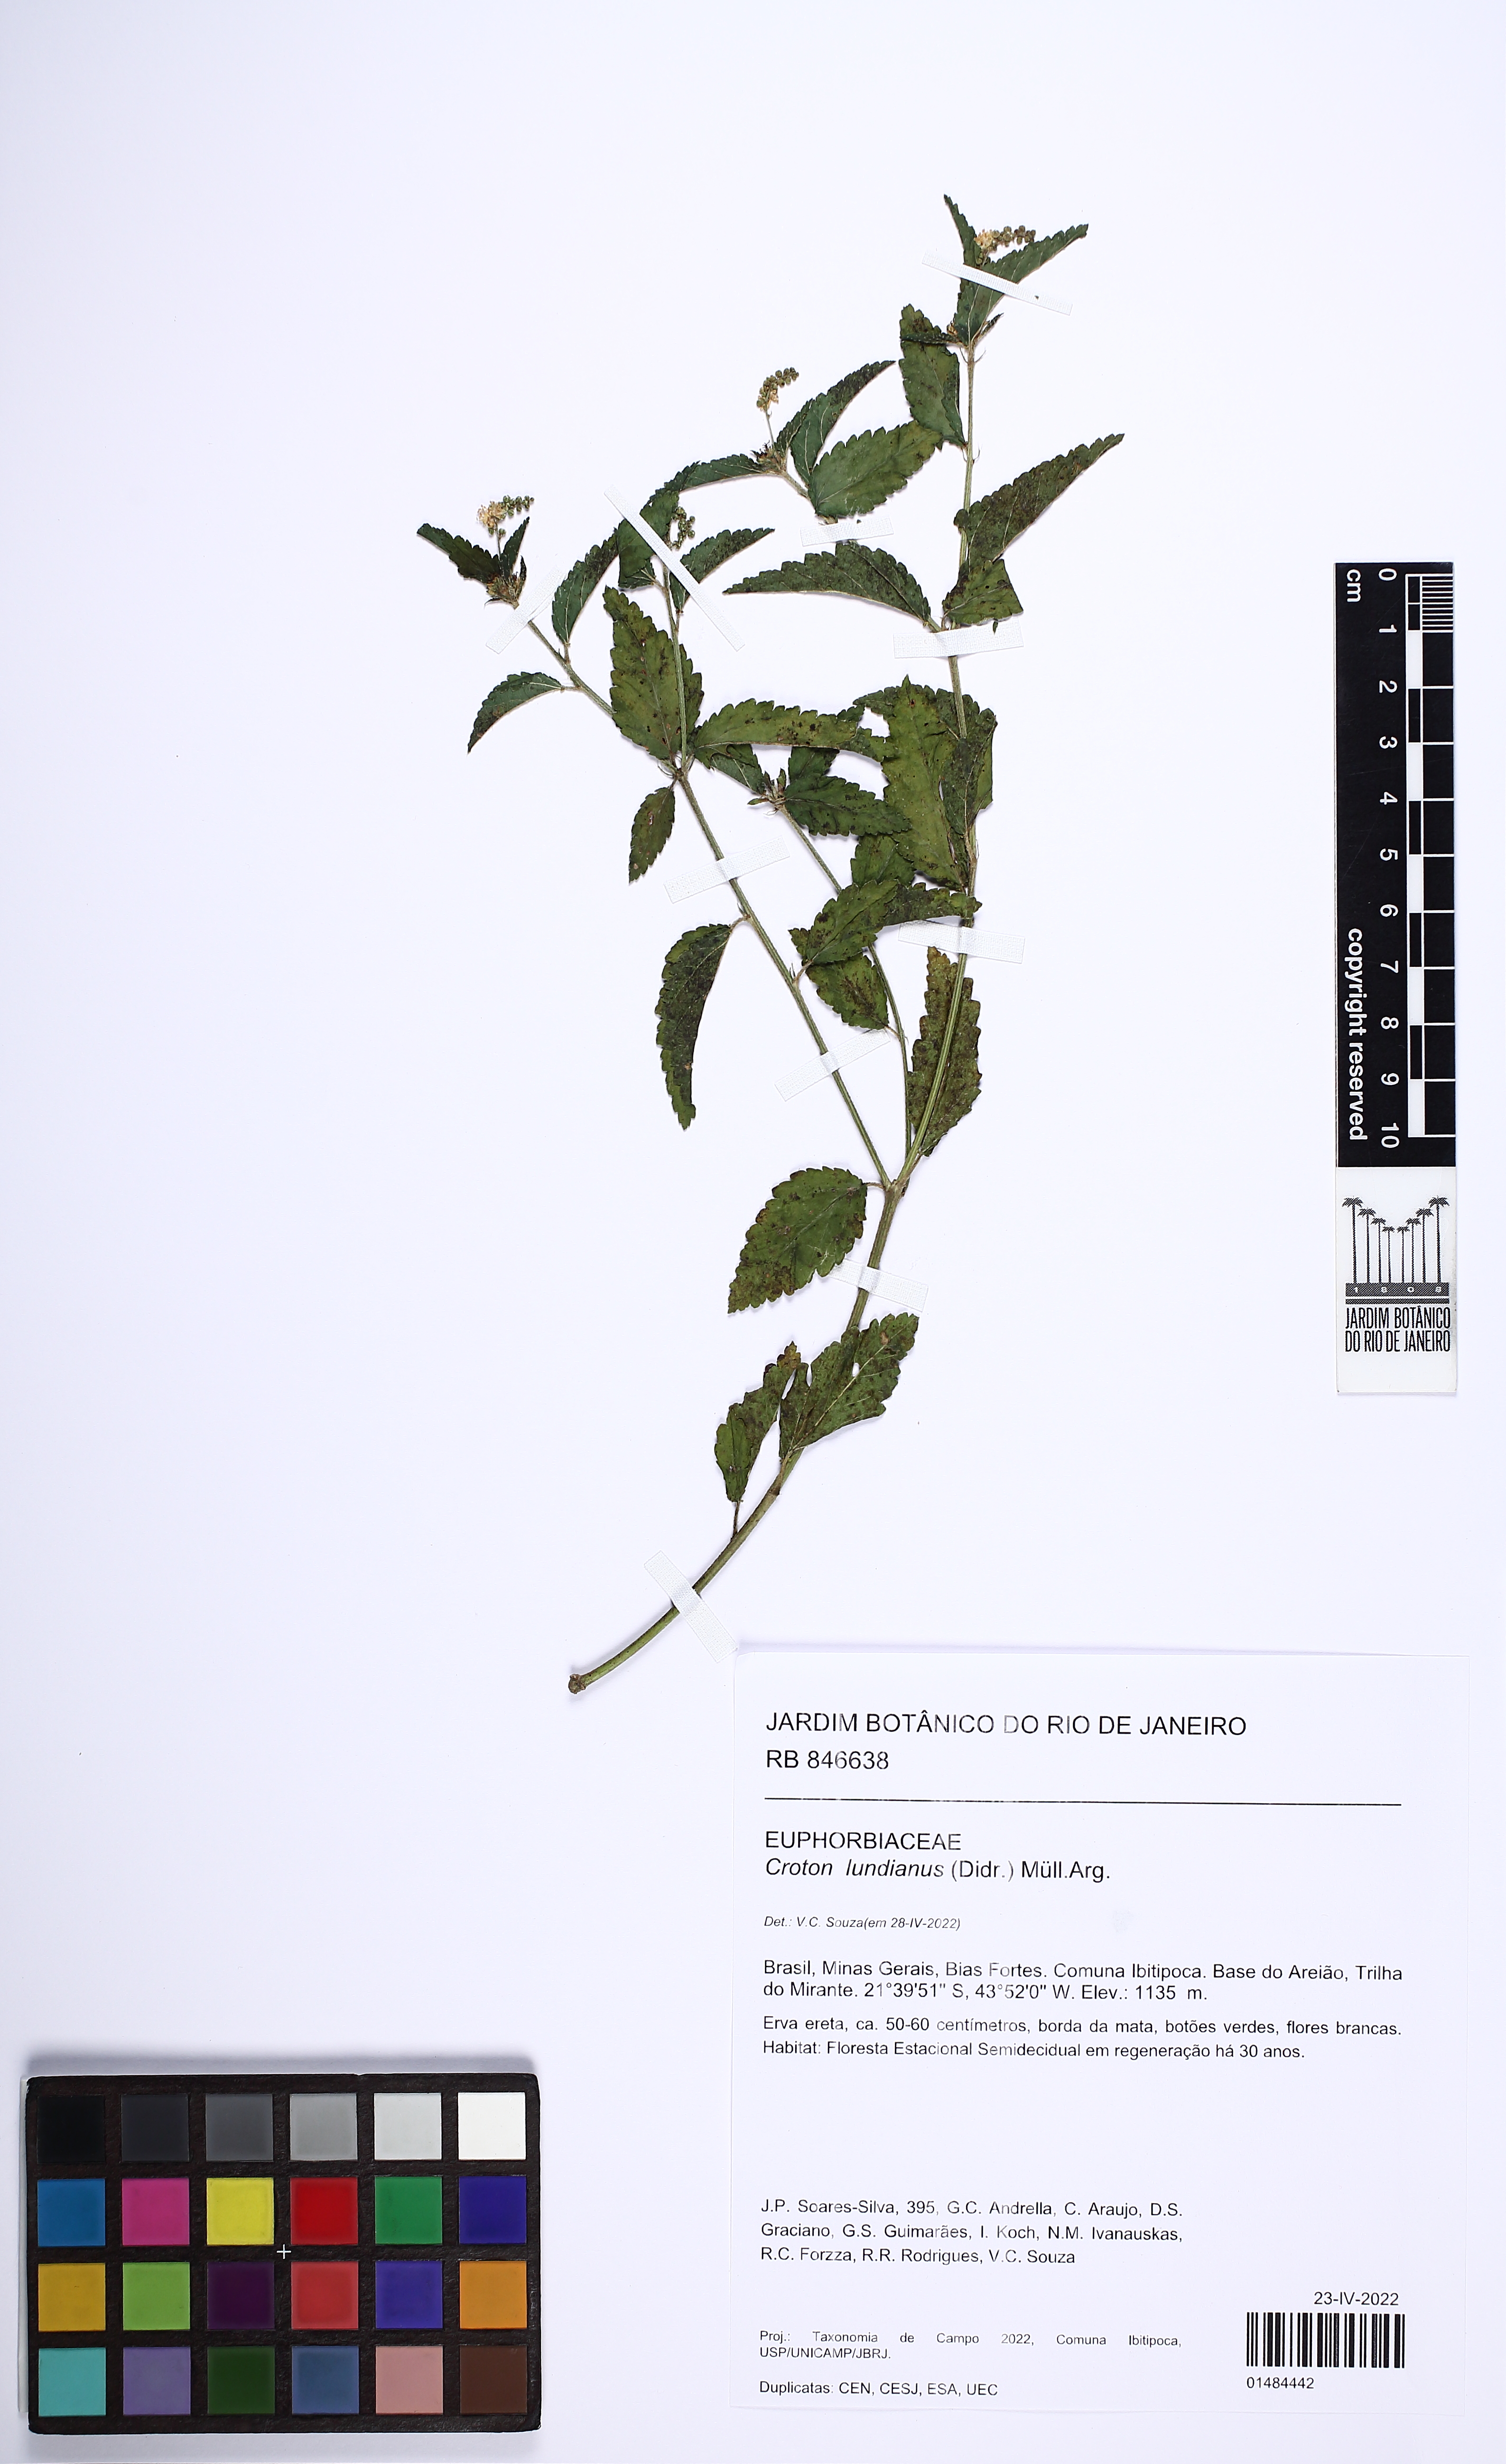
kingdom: Plantae
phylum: Tracheophyta
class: Magnoliopsida
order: Malpighiales
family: Euphorbiaceae
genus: Croton
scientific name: Croton lundianus
